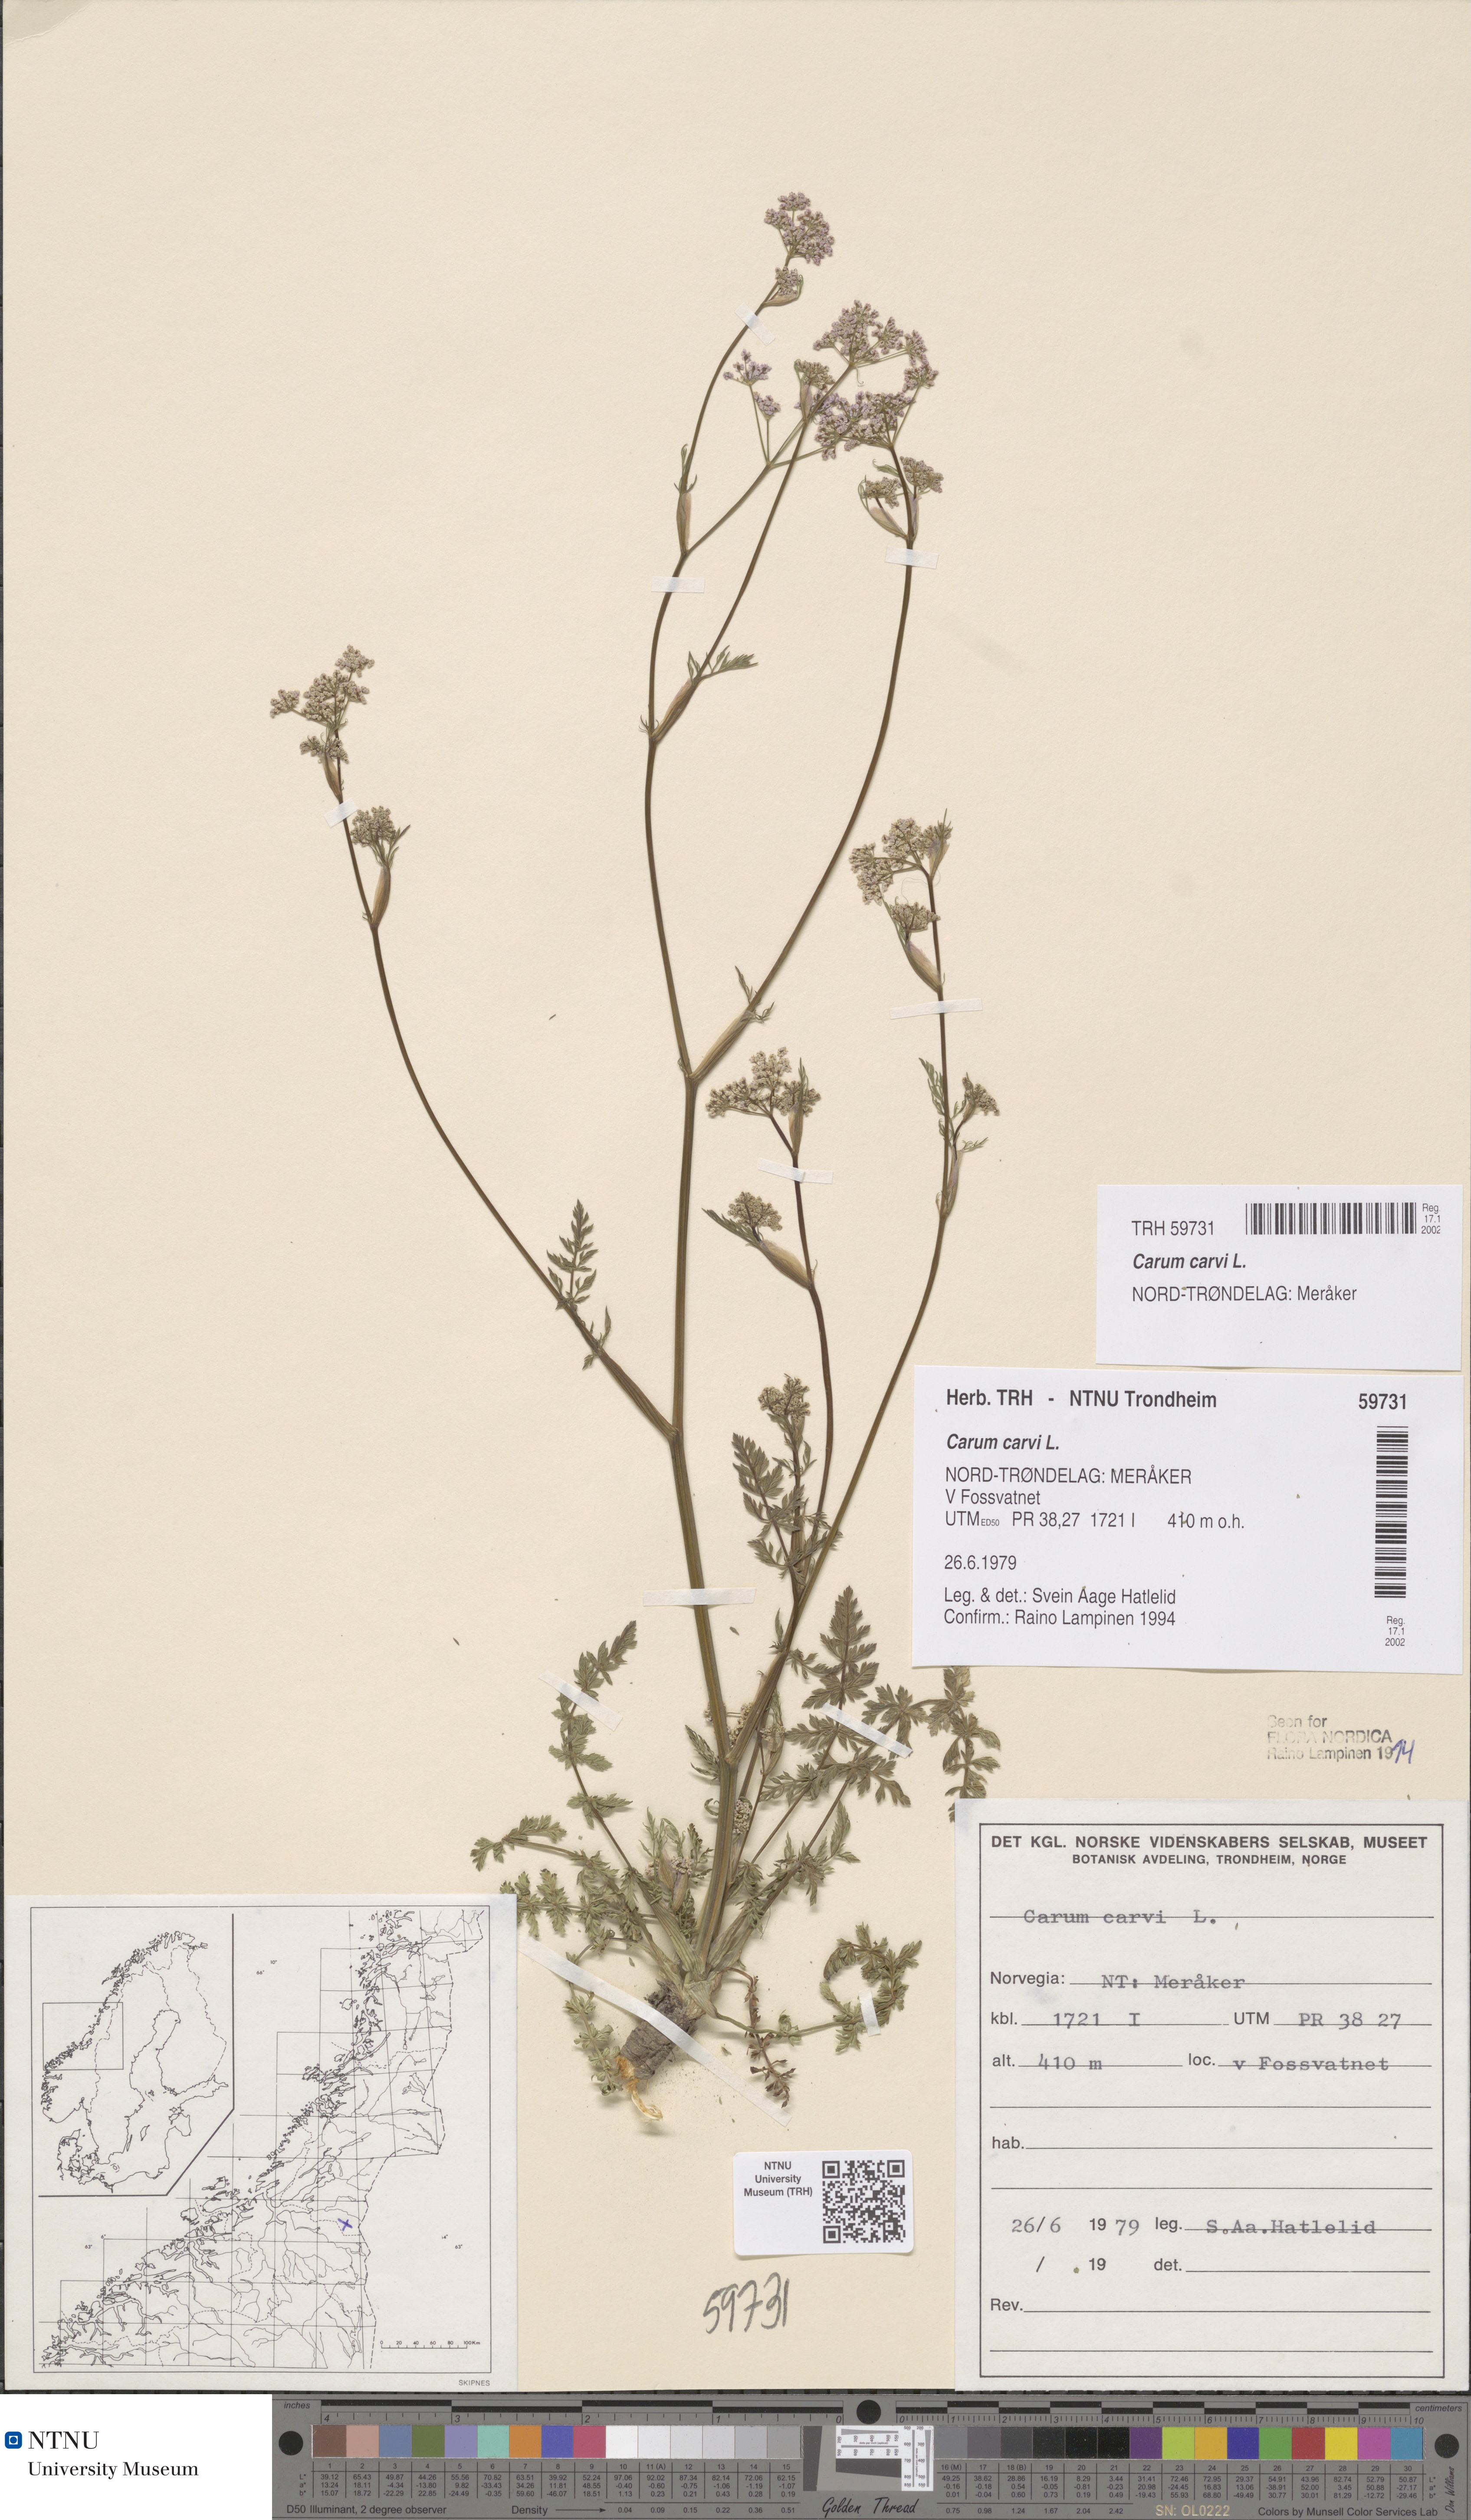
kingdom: Plantae
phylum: Tracheophyta
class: Magnoliopsida
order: Apiales
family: Apiaceae
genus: Carum
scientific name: Carum carvi
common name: Caraway
